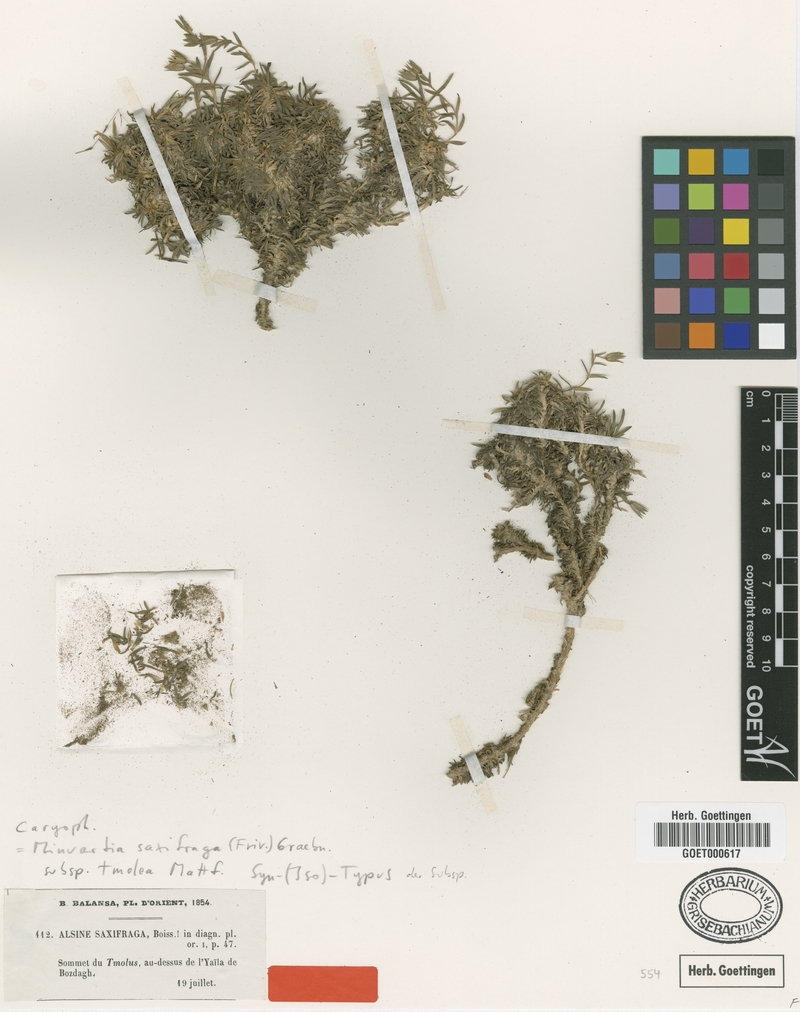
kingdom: Plantae
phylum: Tracheophyta
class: Magnoliopsida
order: Caryophyllales
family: Caryophyllaceae
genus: Mcneillia
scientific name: Mcneillia saxifraga
